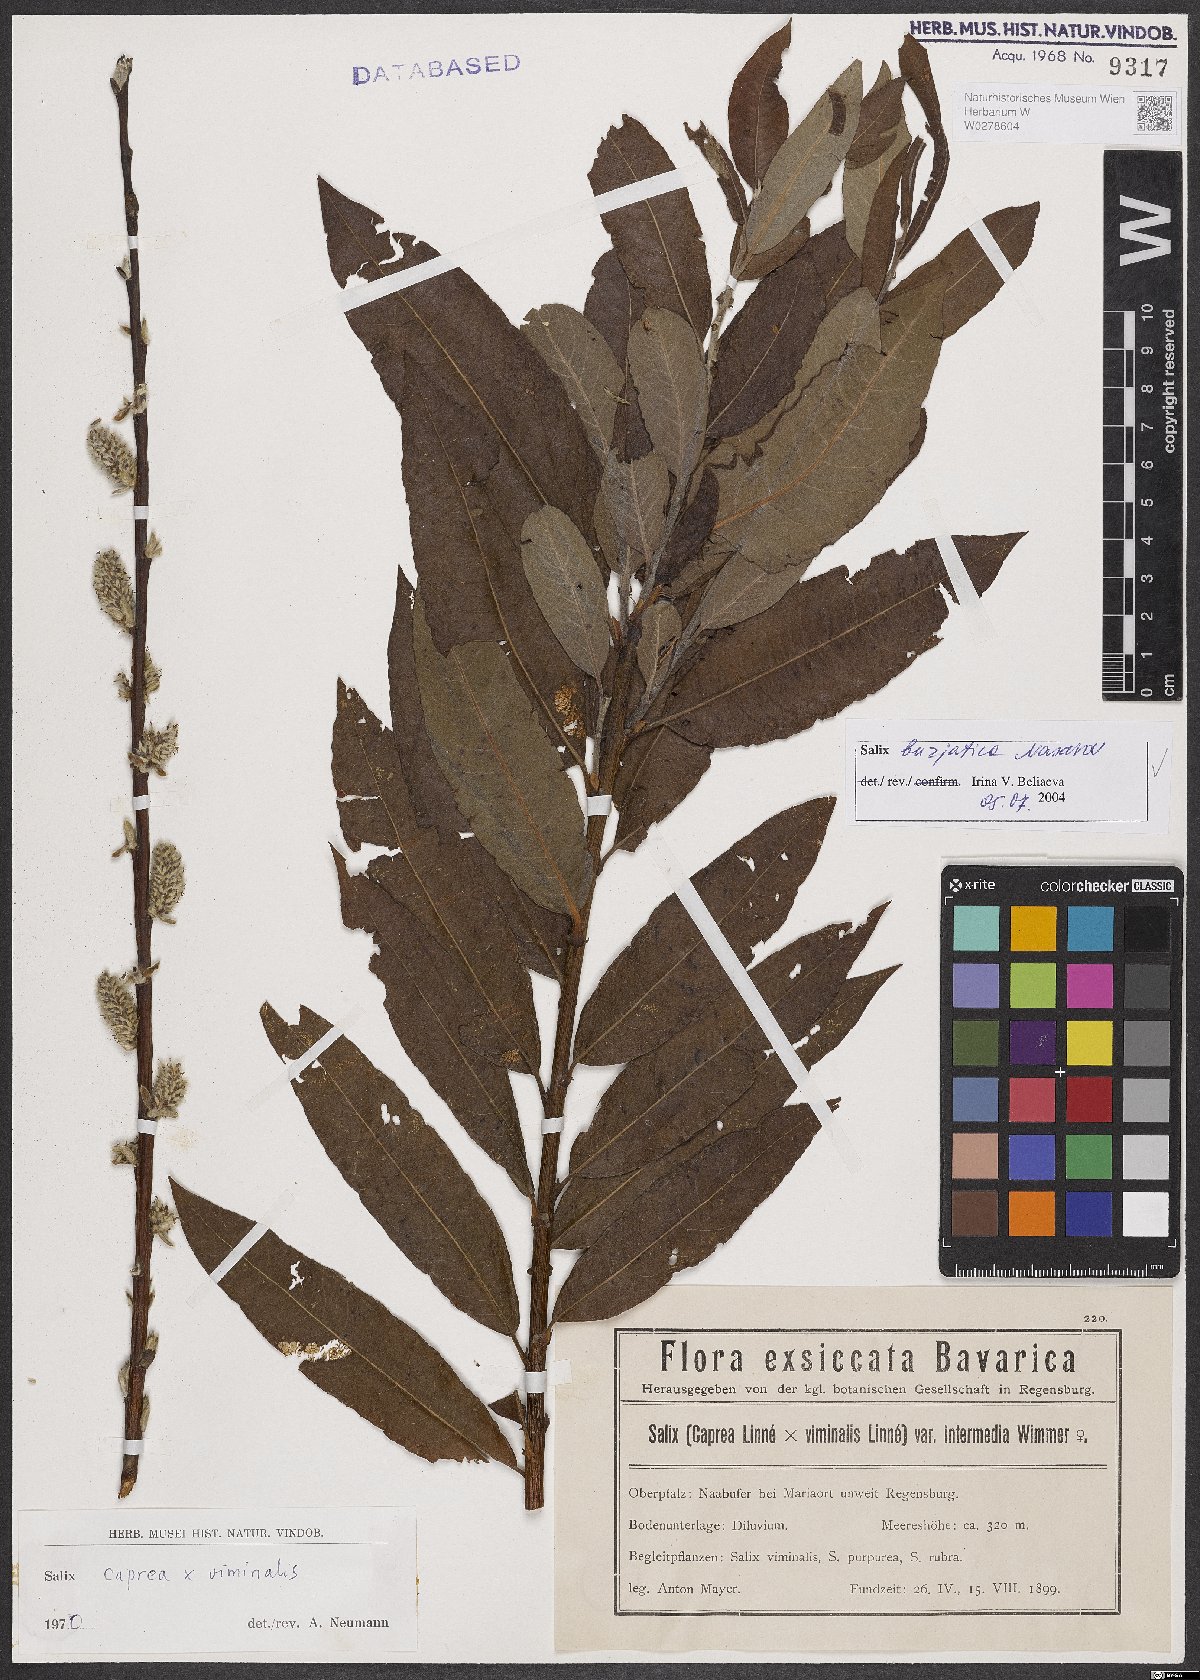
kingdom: Plantae
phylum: Tracheophyta
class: Magnoliopsida
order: Malpighiales
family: Salicaceae
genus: Salix
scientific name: Salix gmelinii
